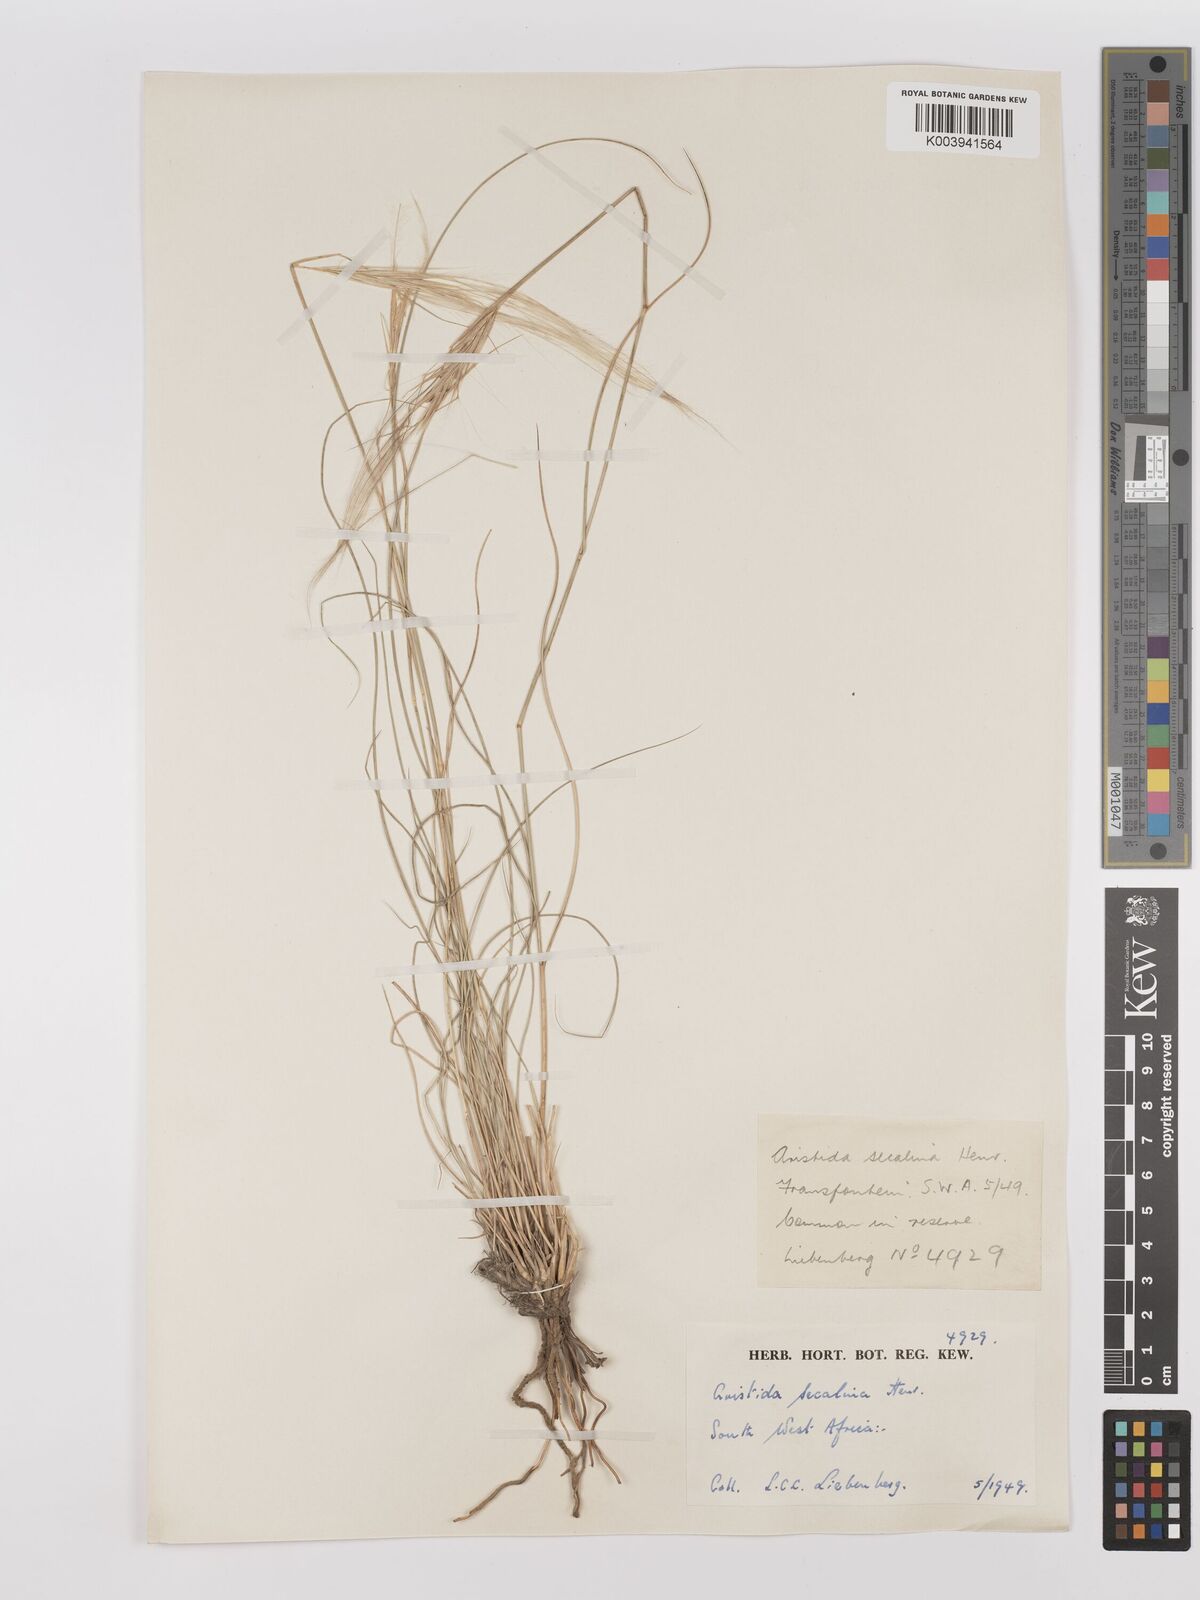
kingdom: Plantae
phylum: Tracheophyta
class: Liliopsida
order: Poales
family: Poaceae
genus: Stipagrostis
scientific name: Stipagrostis hochstetteriana
